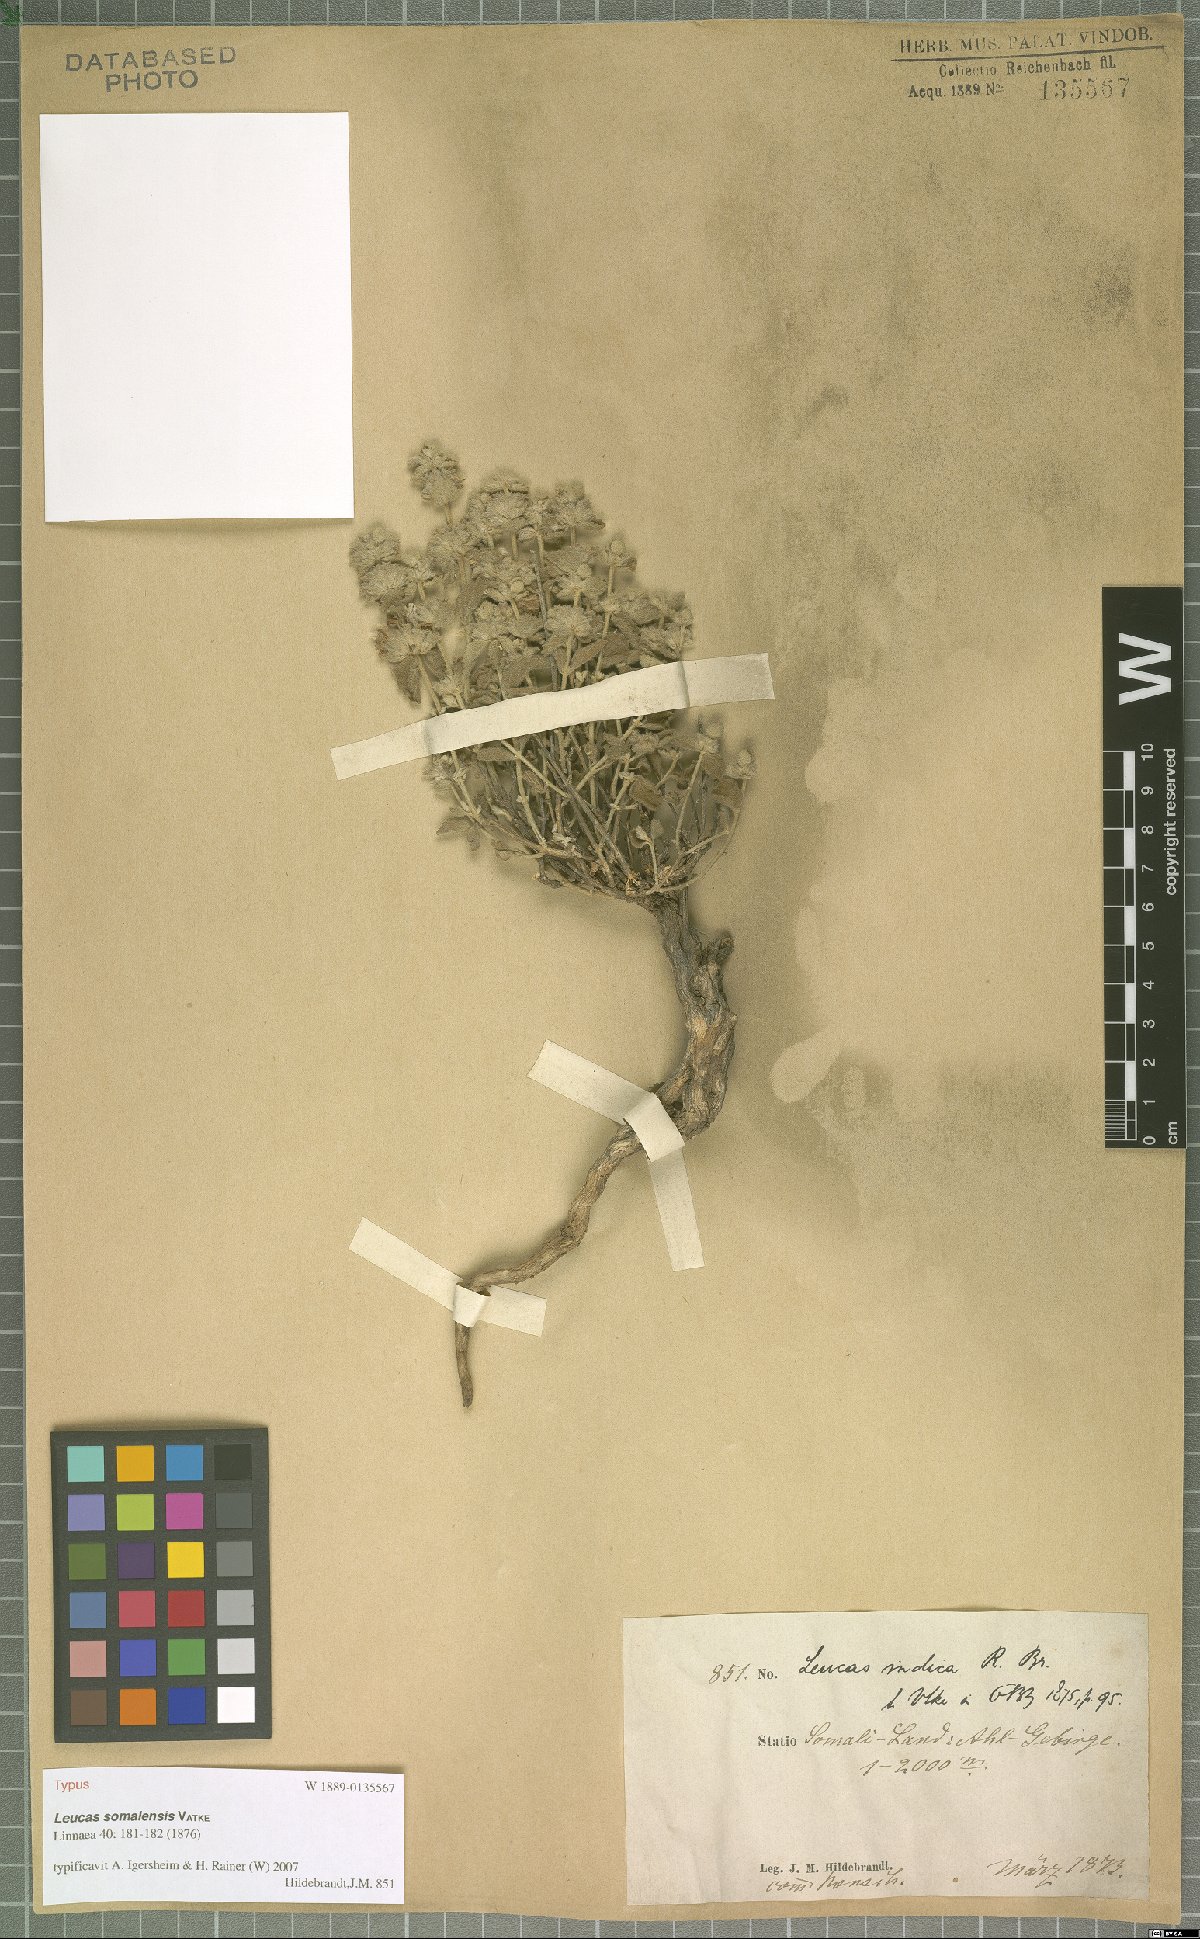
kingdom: Plantae
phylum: Tracheophyta
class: Magnoliopsida
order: Lamiales
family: Lamiaceae
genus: Leucas
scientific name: Leucas somalensis
